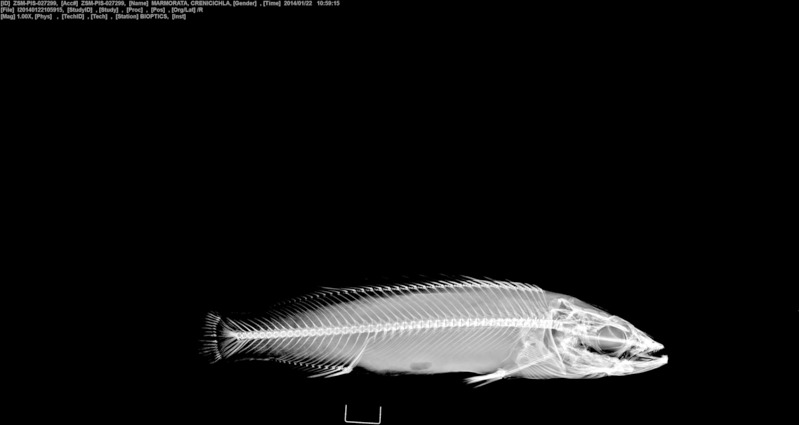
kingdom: Animalia
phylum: Chordata
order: Perciformes
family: Cichlidae
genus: Crenicichla
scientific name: Crenicichla marmorata
